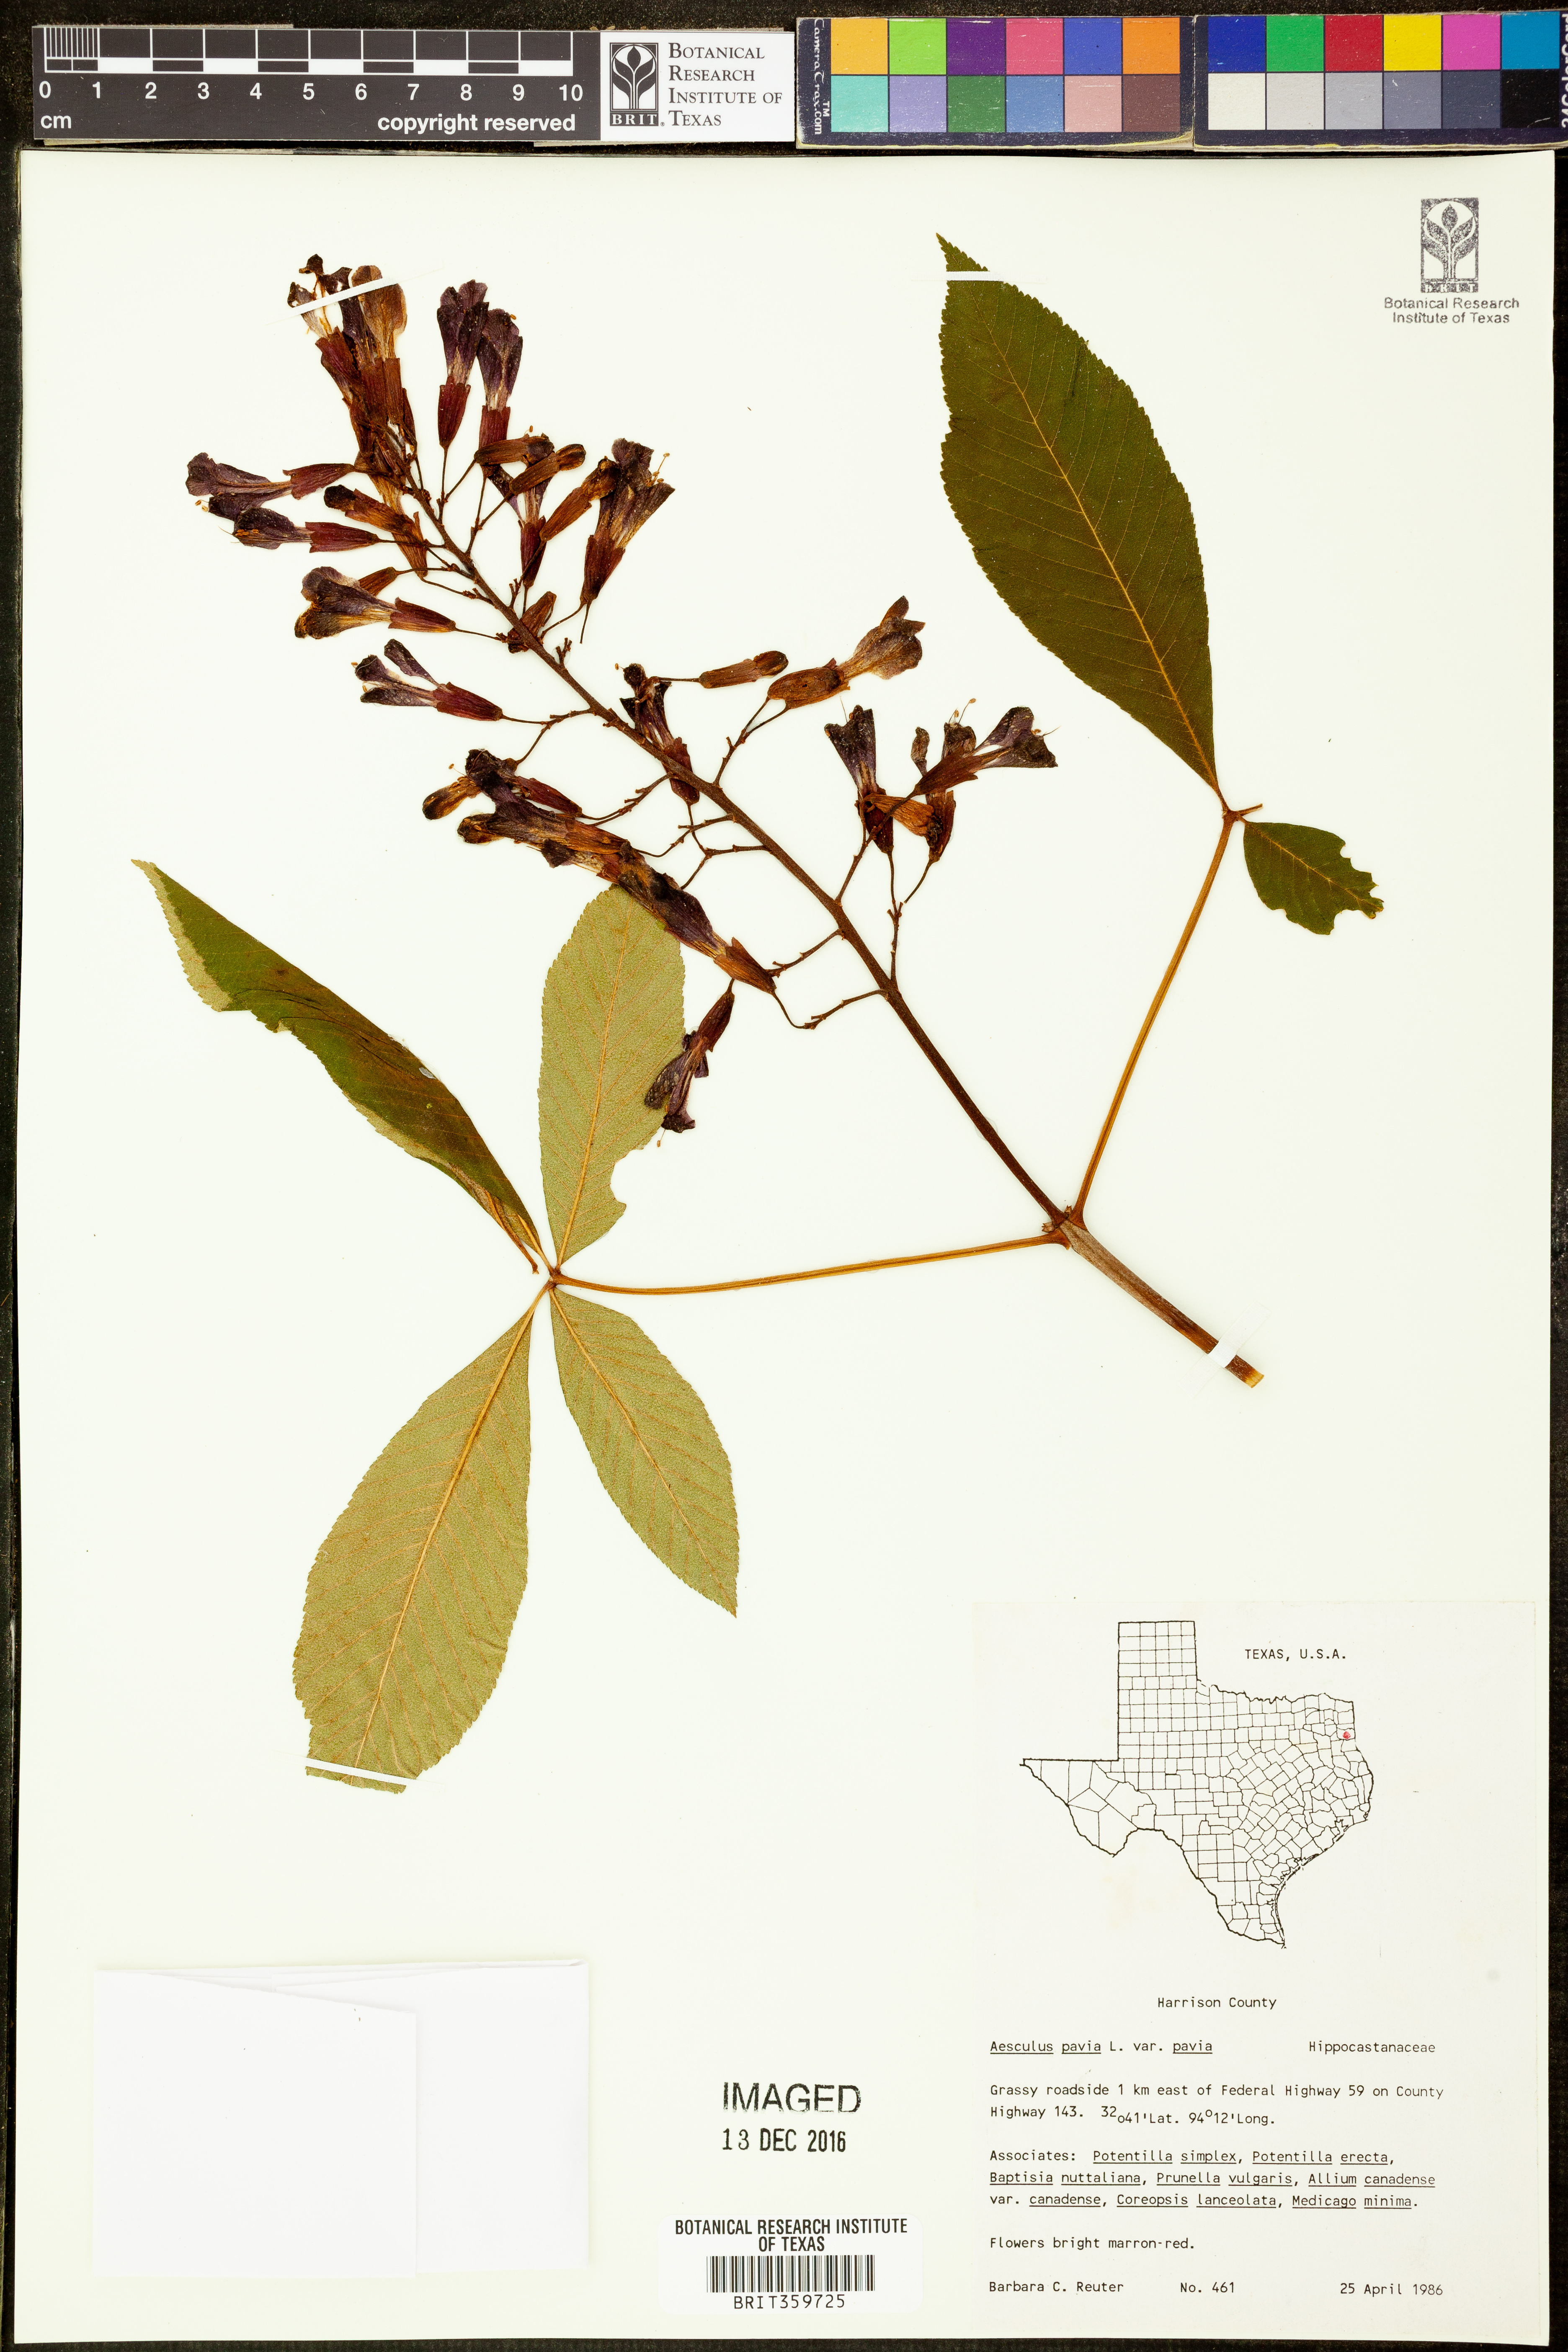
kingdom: Plantae
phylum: Tracheophyta
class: Magnoliopsida
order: Sapindales
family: Sapindaceae
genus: Aesculus
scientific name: Aesculus pavia
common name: Red buckeye
